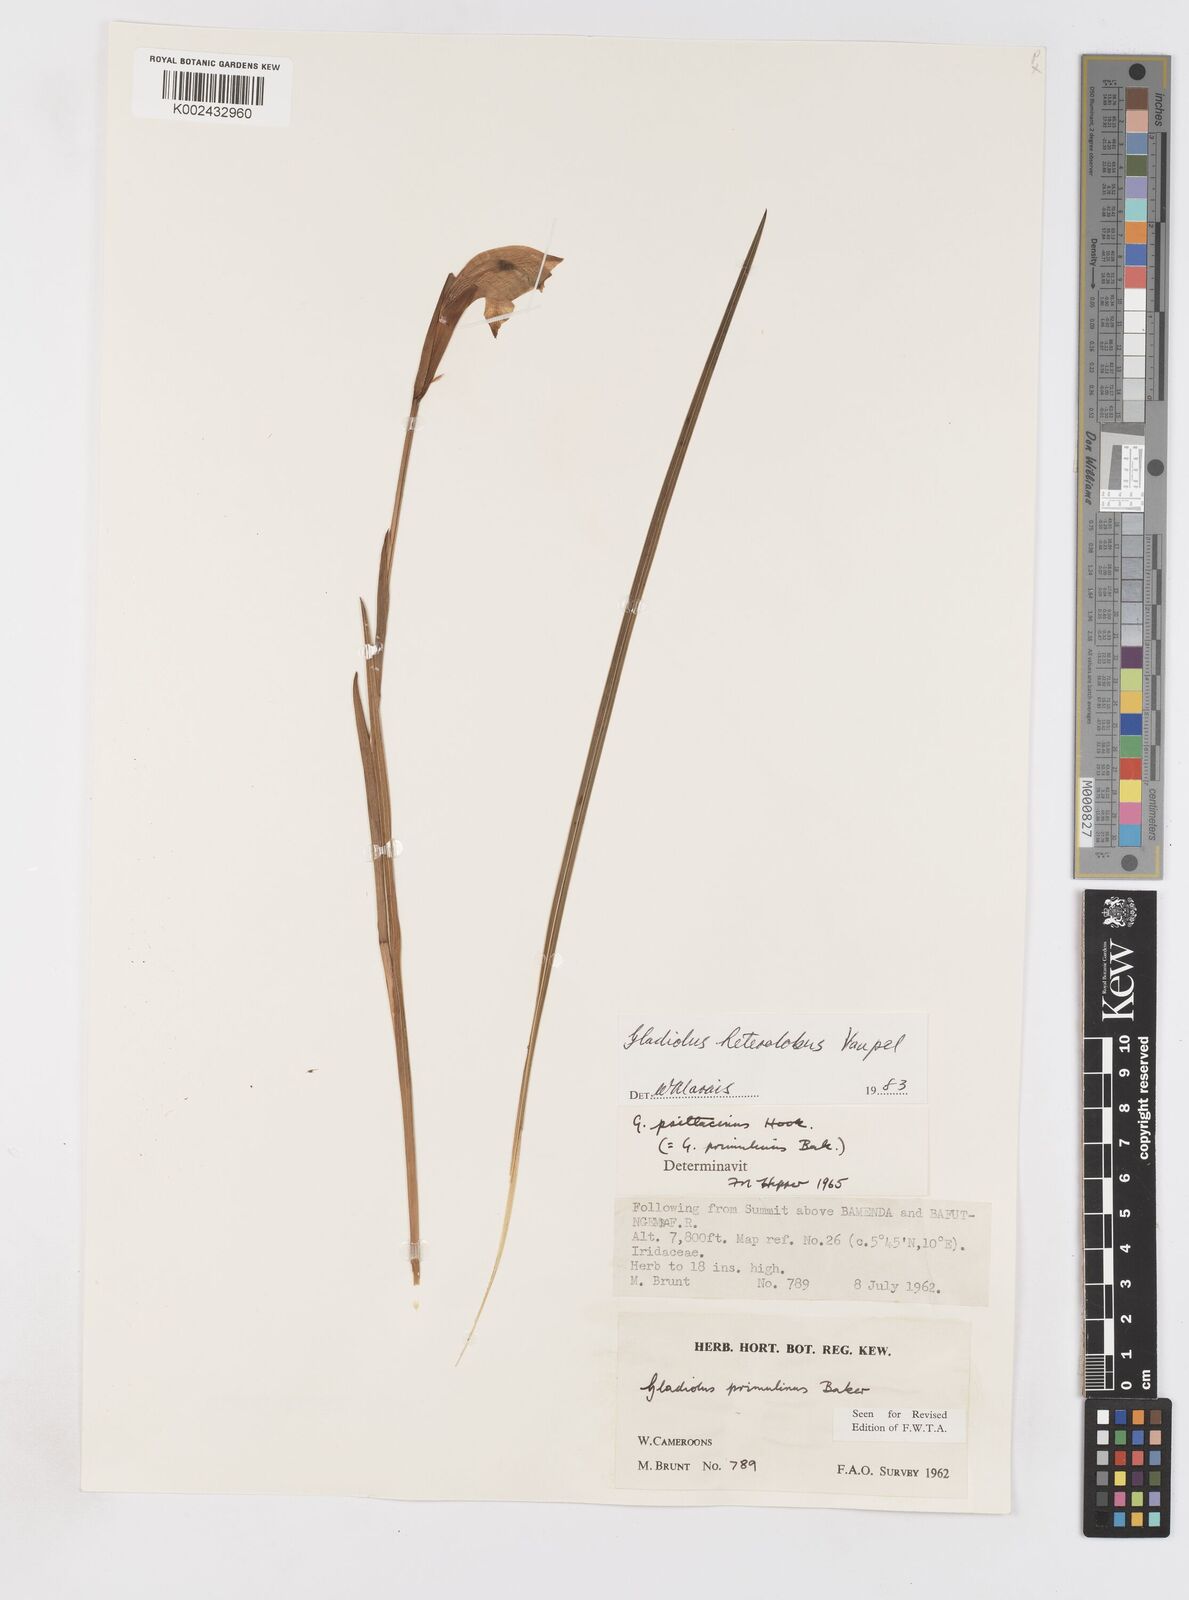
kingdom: Plantae
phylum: Tracheophyta
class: Liliopsida
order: Asparagales
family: Iridaceae
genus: Gladiolus
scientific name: Gladiolus roseolus
